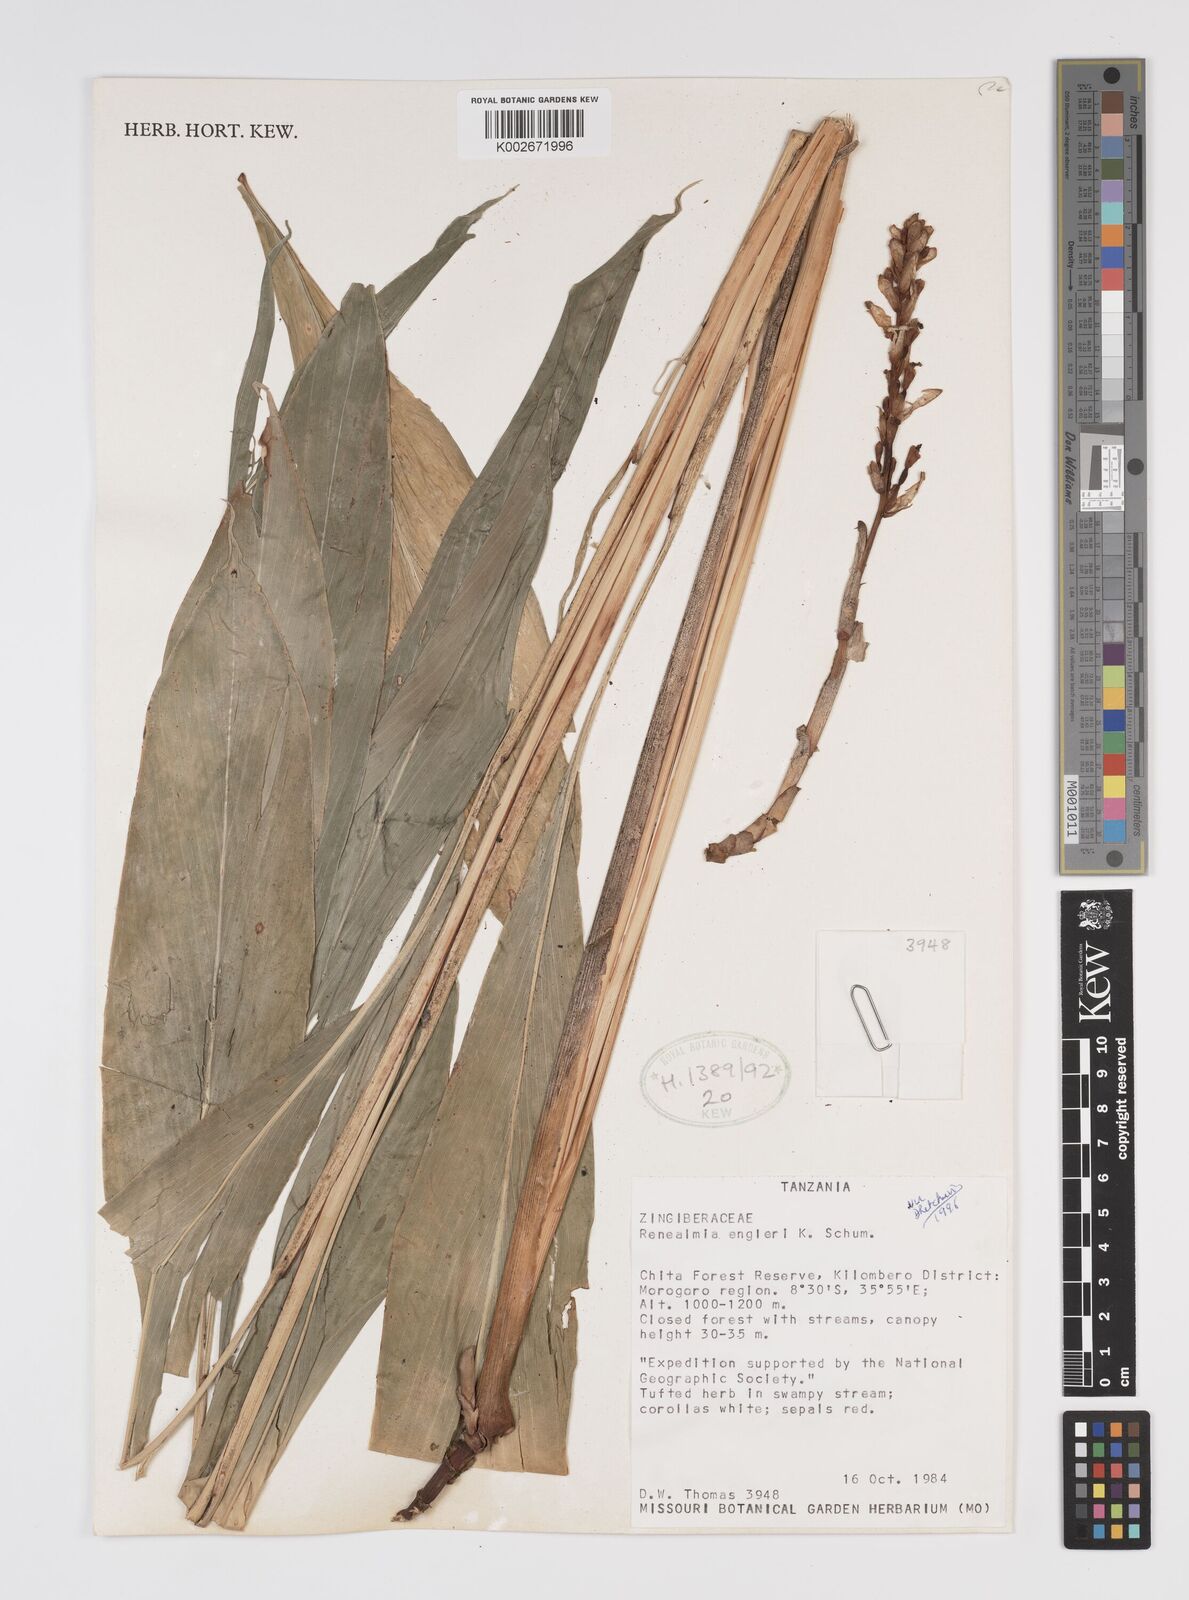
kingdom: Plantae
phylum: Tracheophyta
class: Liliopsida
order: Zingiberales
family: Zingiberaceae
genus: Renealmia
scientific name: Renealmia engleri
